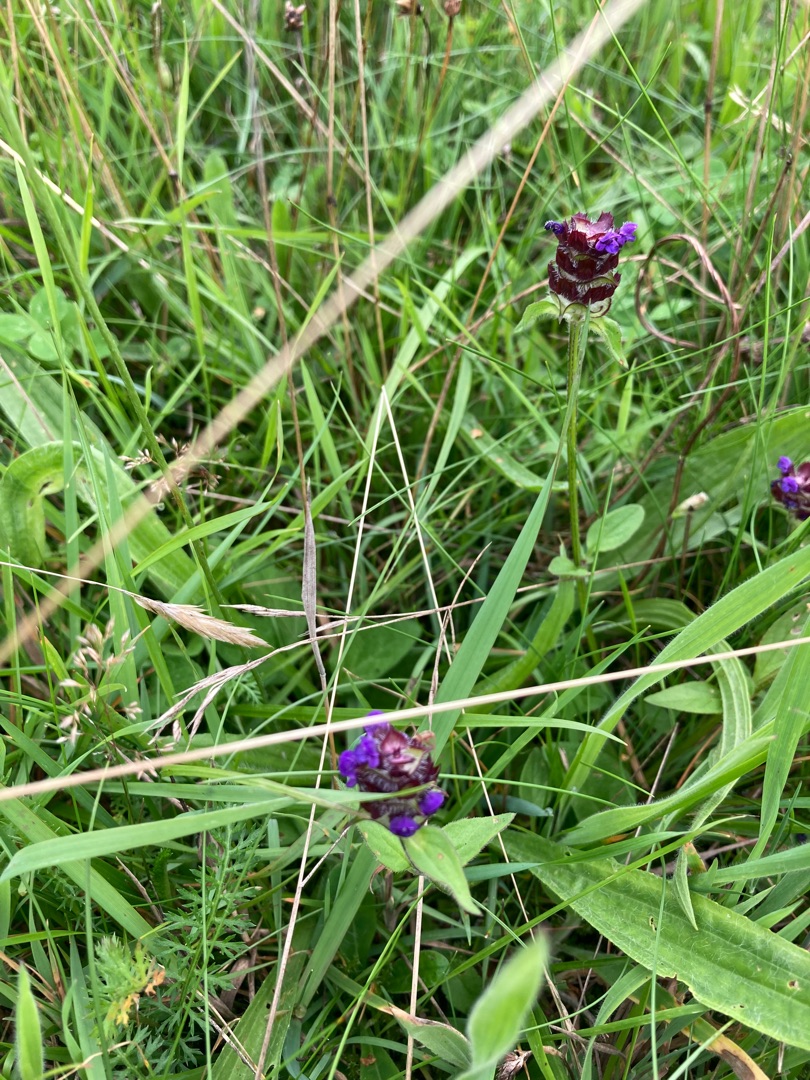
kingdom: Plantae
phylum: Tracheophyta
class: Magnoliopsida
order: Lamiales
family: Lamiaceae
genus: Prunella
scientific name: Prunella vulgaris
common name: Almindelig brunelle
